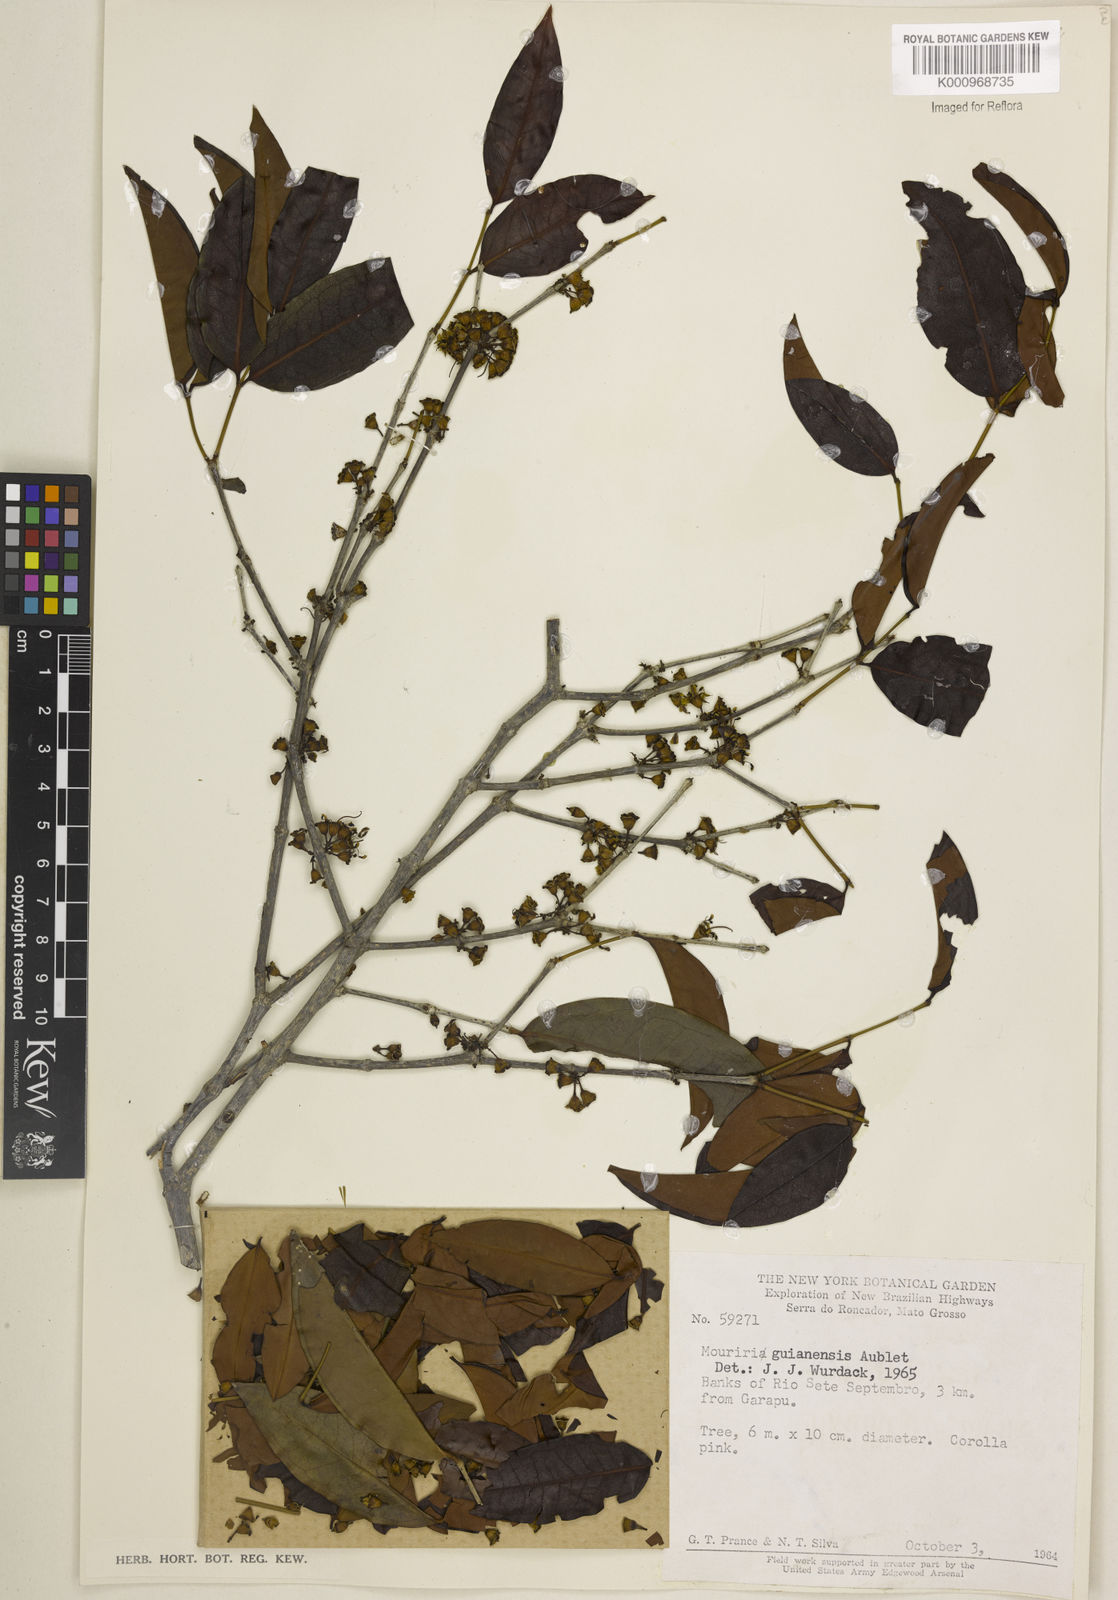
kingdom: Plantae
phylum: Tracheophyta
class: Magnoliopsida
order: Myrtales
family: Melastomataceae
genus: Mouriri
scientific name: Mouriri guianensis
